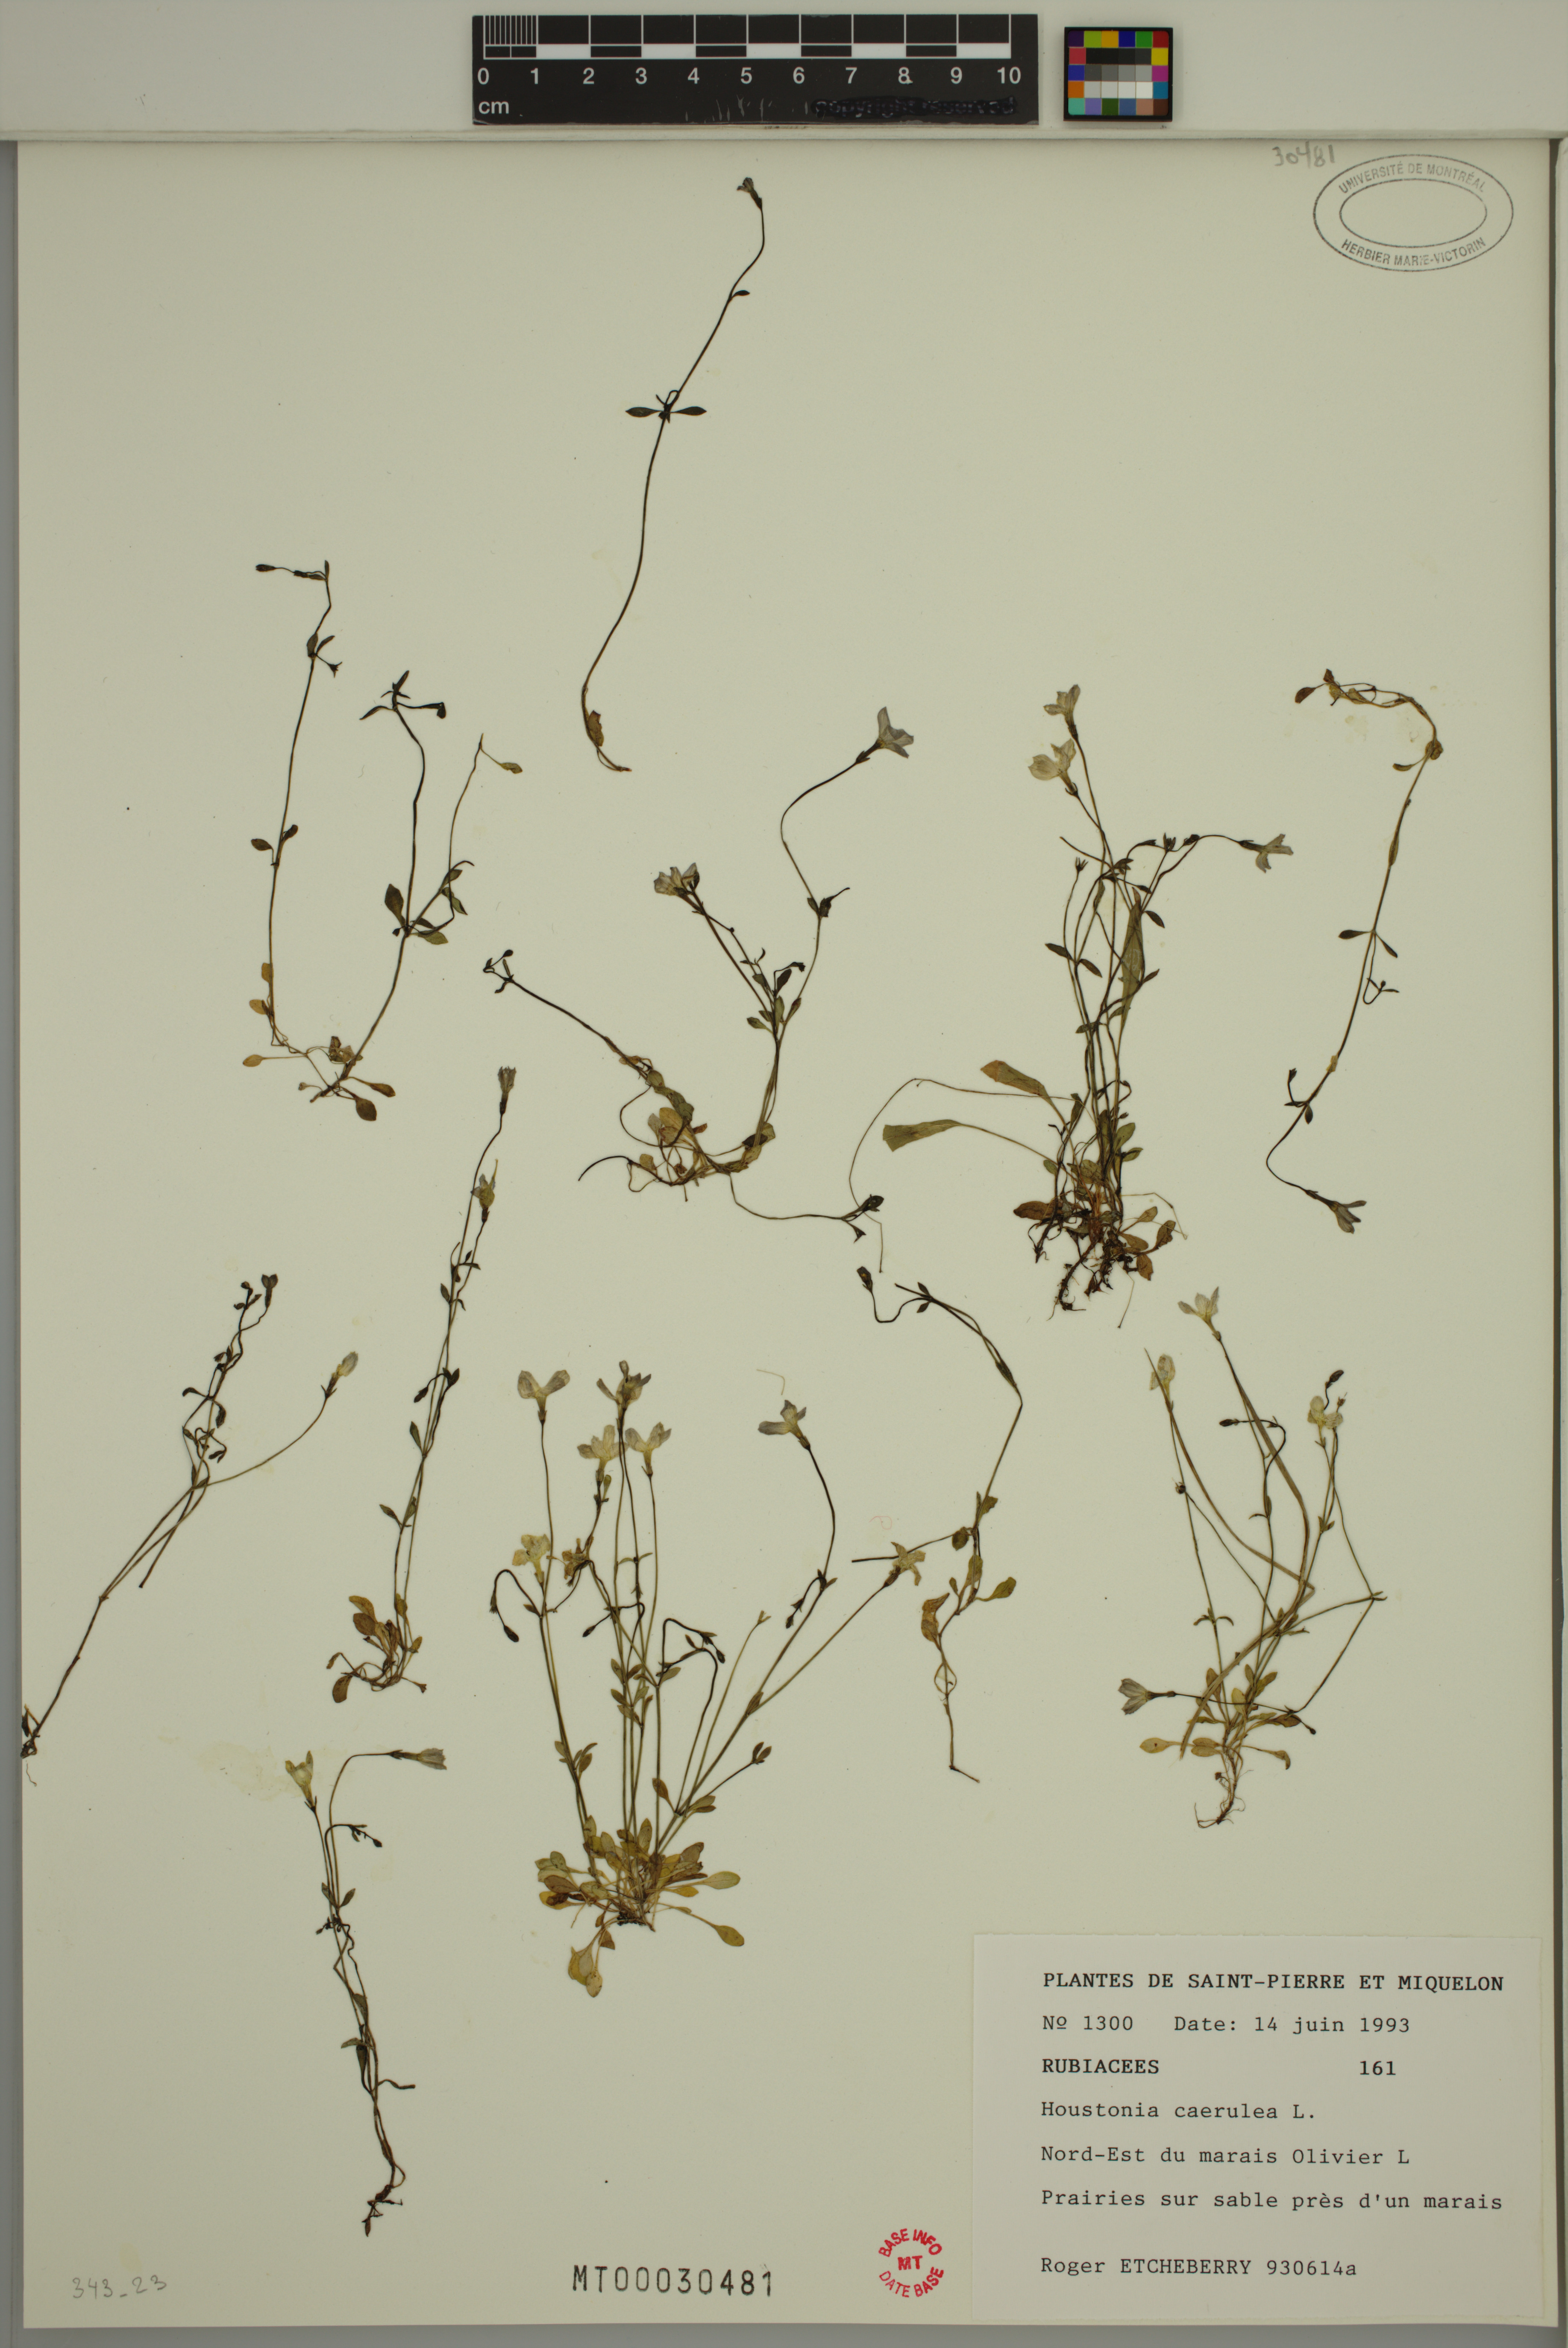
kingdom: Plantae
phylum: Tracheophyta
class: Magnoliopsida
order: Gentianales
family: Rubiaceae
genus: Houstonia
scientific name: Houstonia caerulea
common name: Bluets
